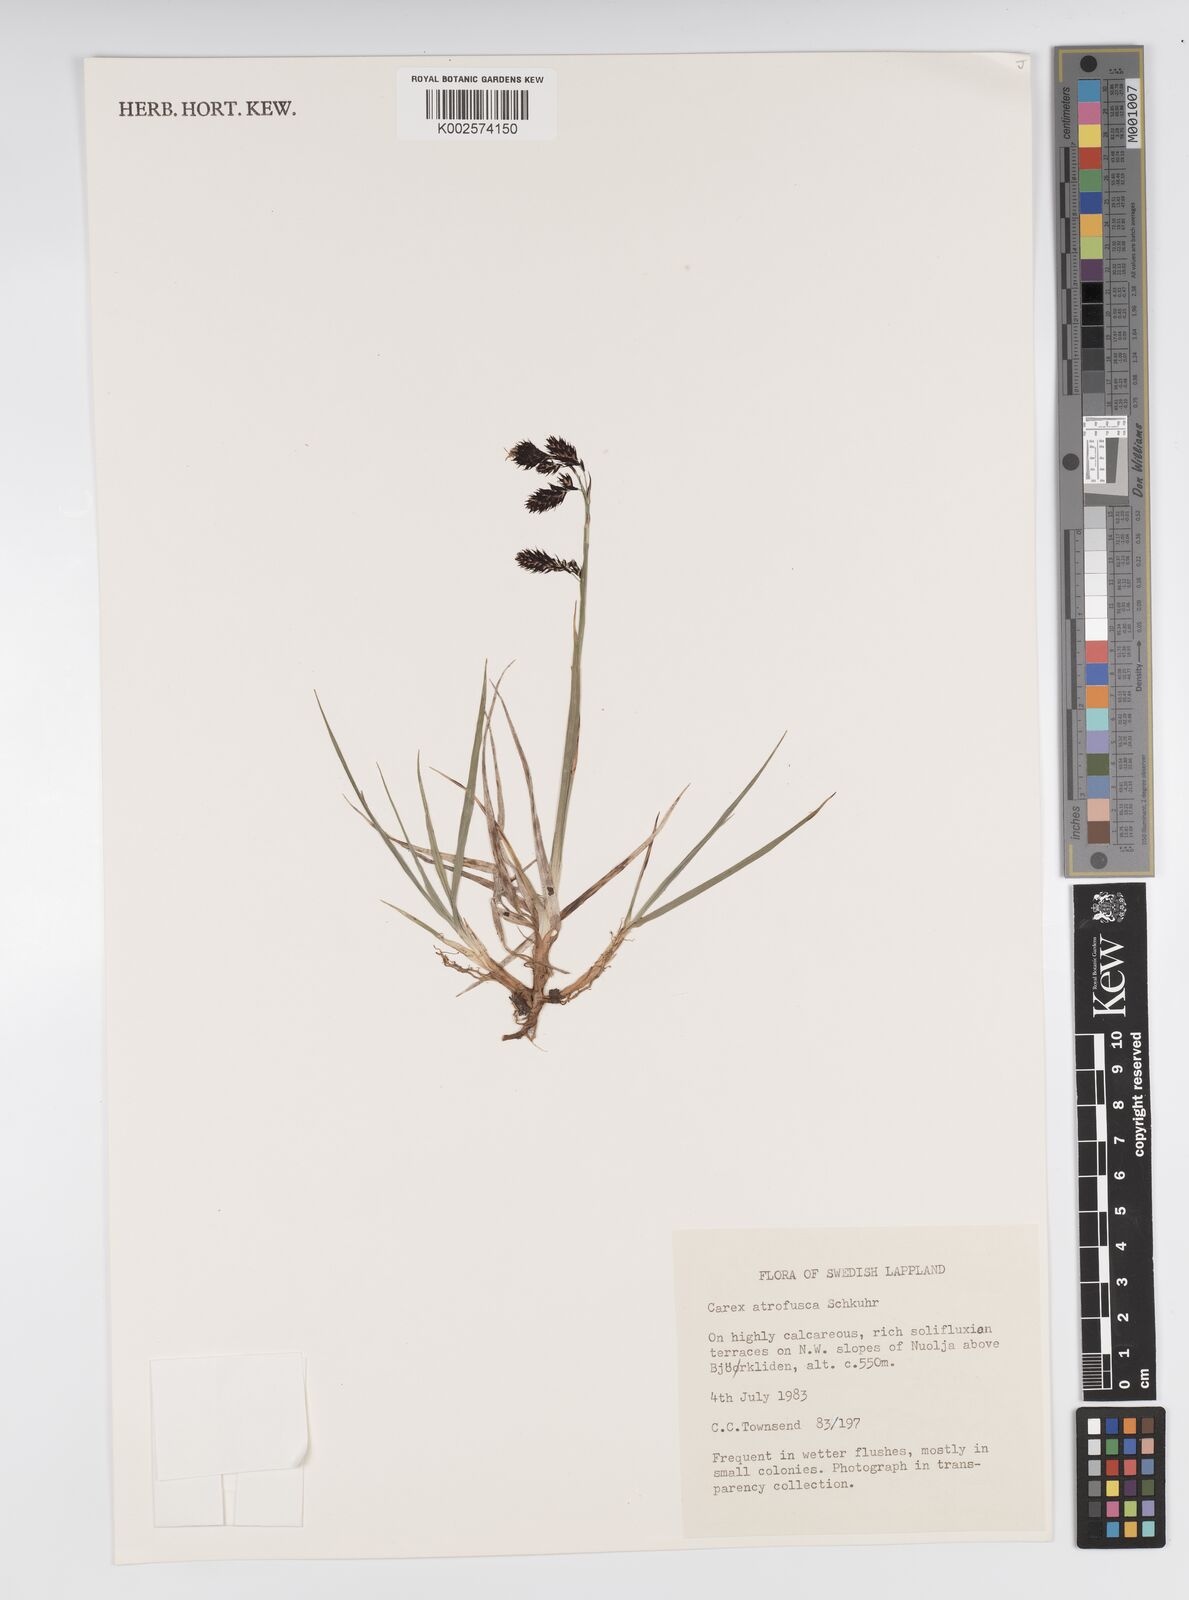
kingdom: Plantae
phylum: Tracheophyta
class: Liliopsida
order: Poales
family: Cyperaceae
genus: Carex
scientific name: Carex atrofusca
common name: Scorched alpine-sedge
